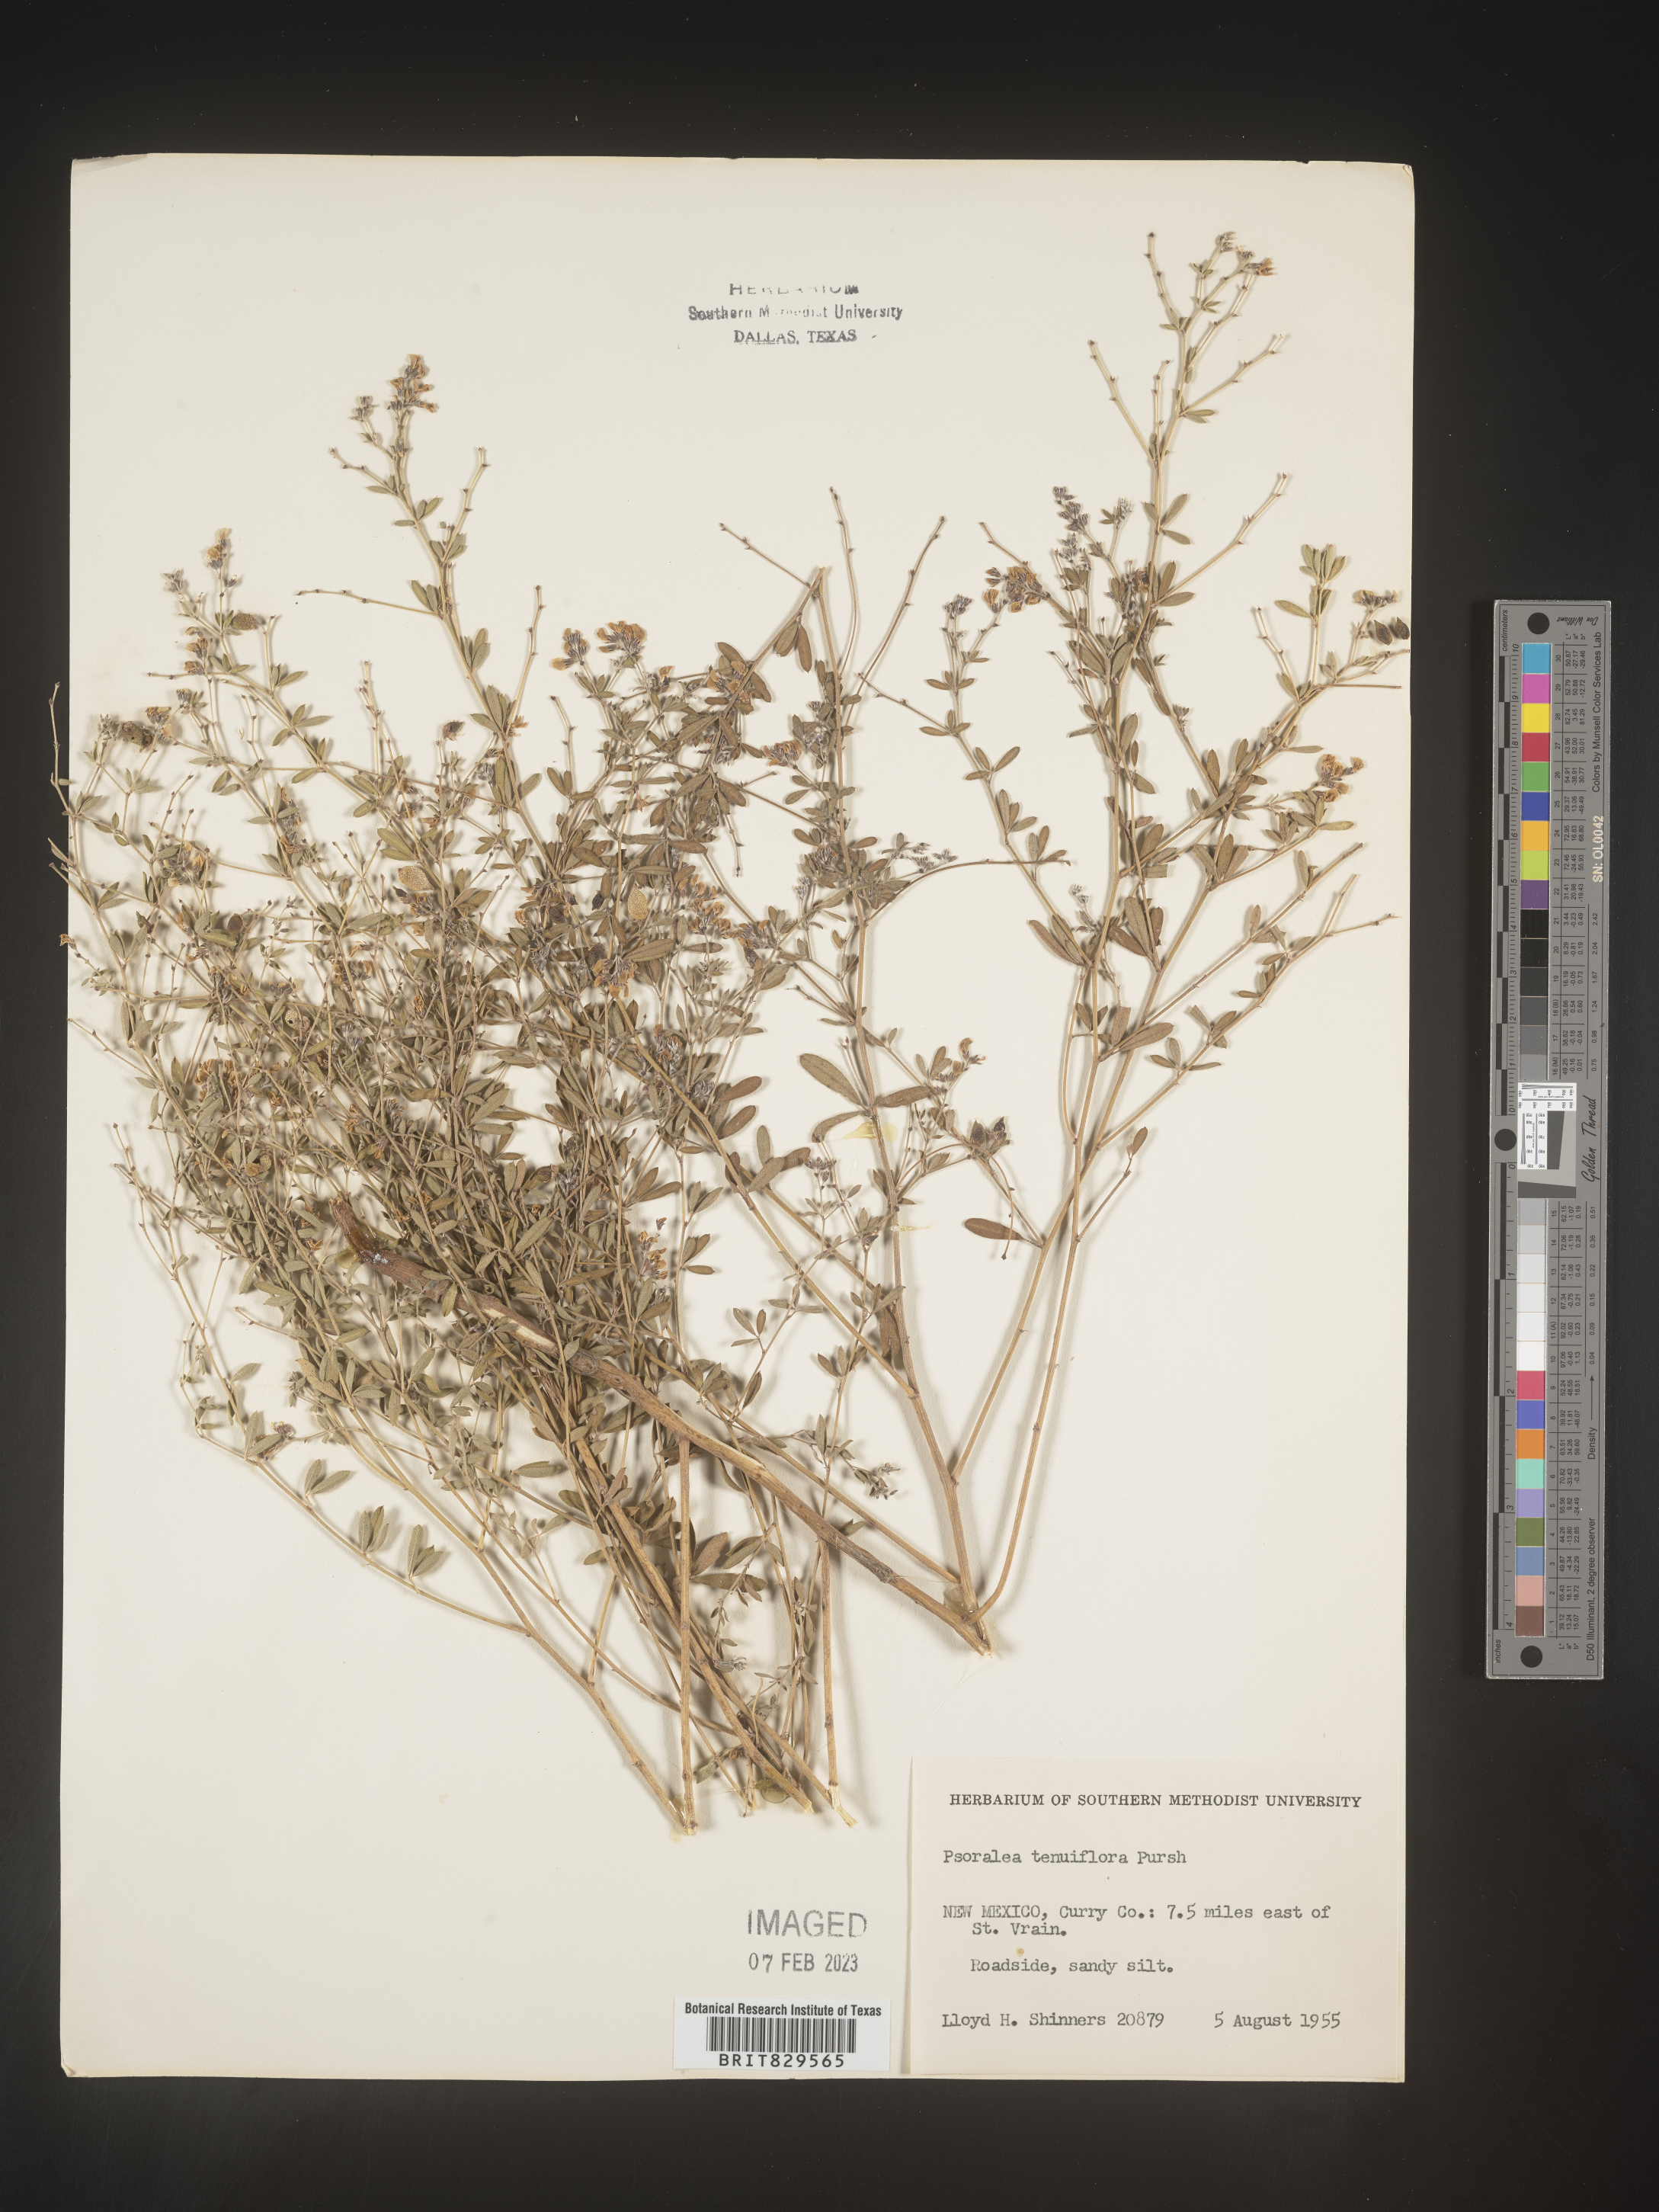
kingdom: Plantae
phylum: Tracheophyta
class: Magnoliopsida
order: Fabales
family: Fabaceae
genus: Pediomelum
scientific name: Pediomelum tenuiflorum
